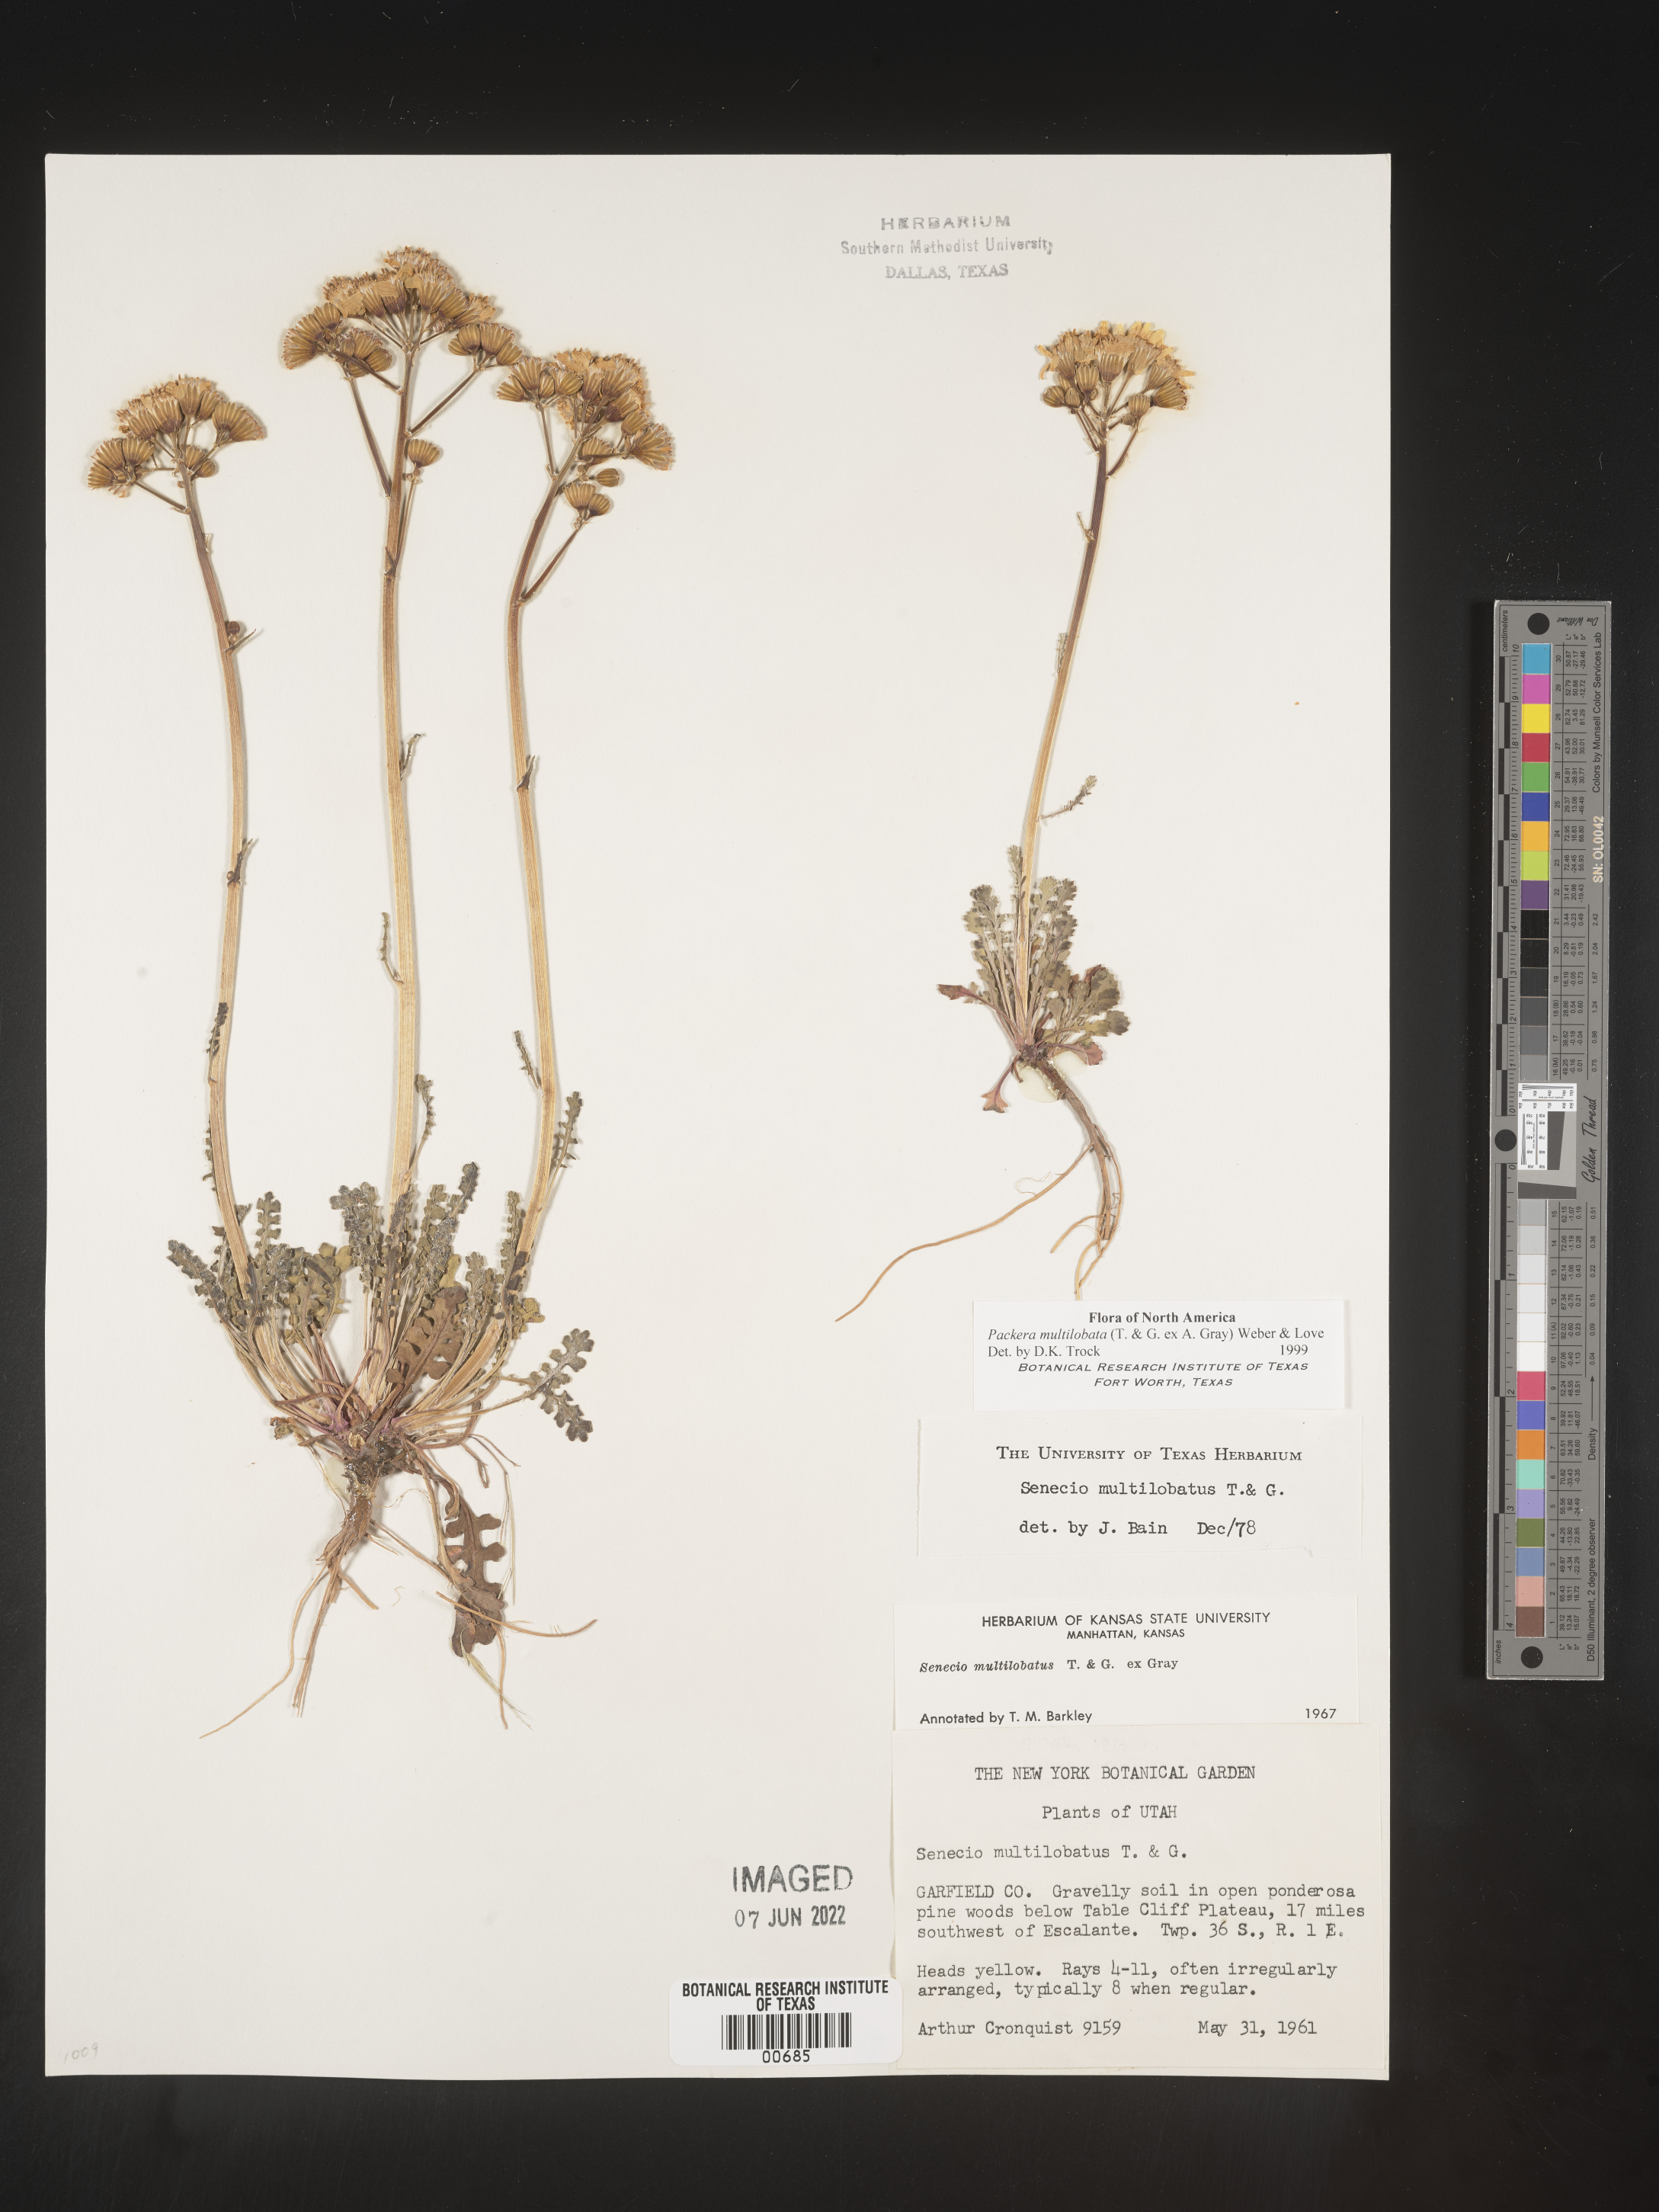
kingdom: Plantae
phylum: Tracheophyta
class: Magnoliopsida
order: Asterales
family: Asteraceae
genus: Packera
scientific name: Packera multilobata
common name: Lobe-leaf groundsel
